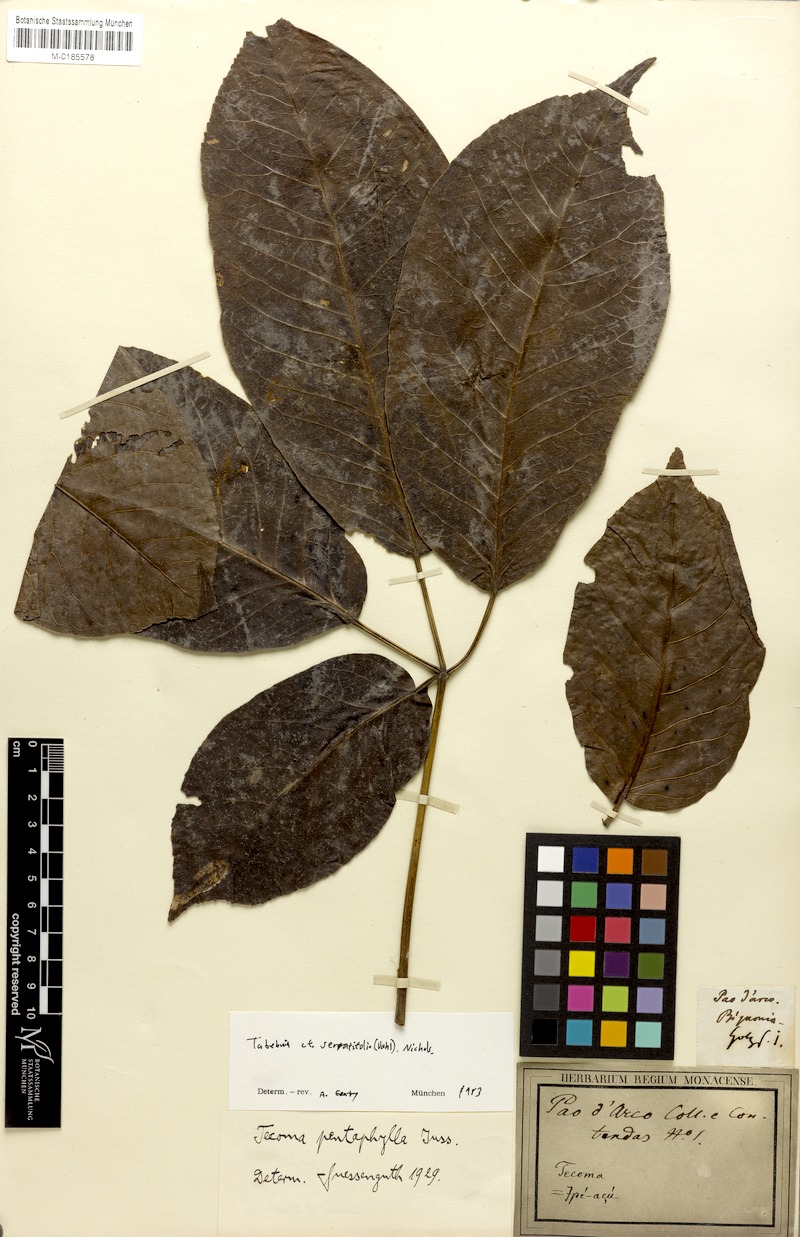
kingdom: Plantae
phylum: Tracheophyta
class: Magnoliopsida
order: Lamiales
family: Bignoniaceae
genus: Handroanthus
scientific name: Handroanthus serratifolius
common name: Yellow ipe
